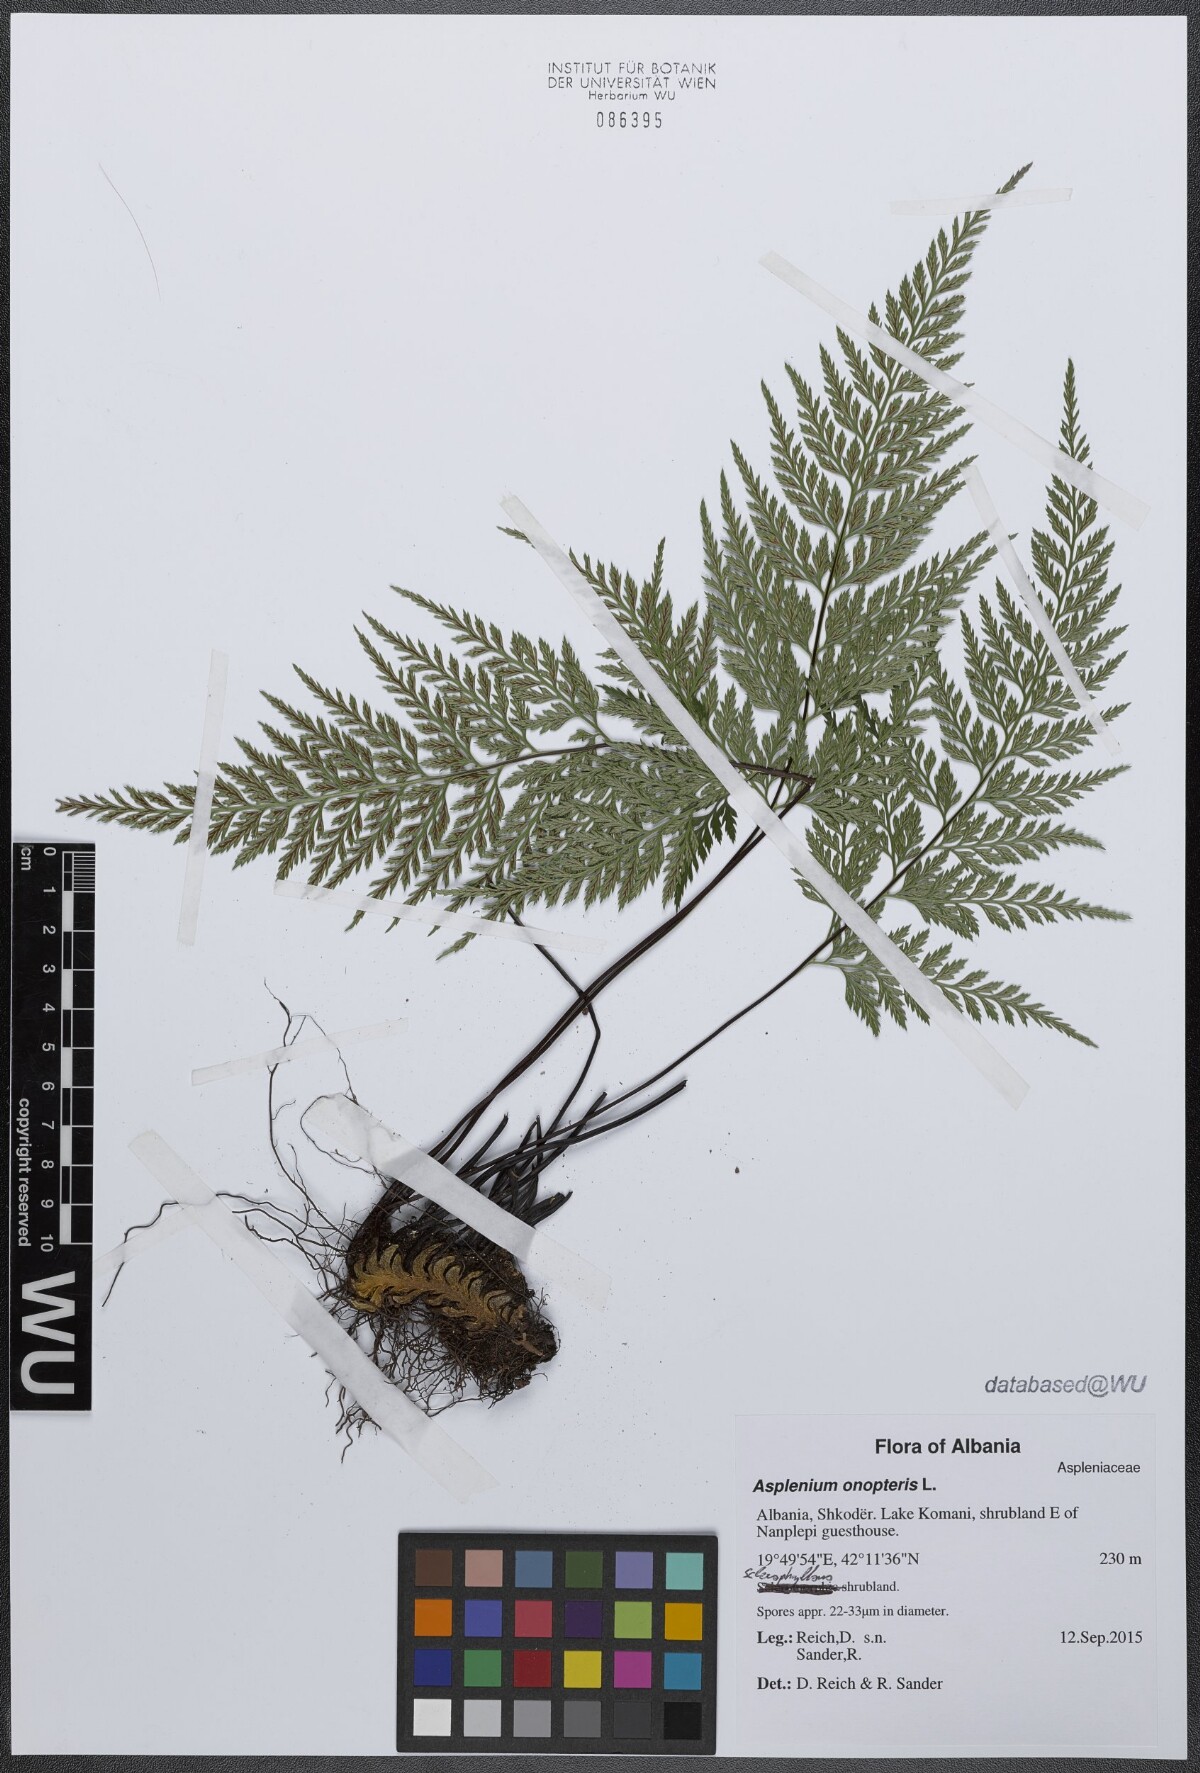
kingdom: Plantae
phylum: Tracheophyta
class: Polypodiopsida
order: Polypodiales
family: Aspleniaceae
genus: Asplenium
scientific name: Asplenium onopteris
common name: Irish spleenwort
